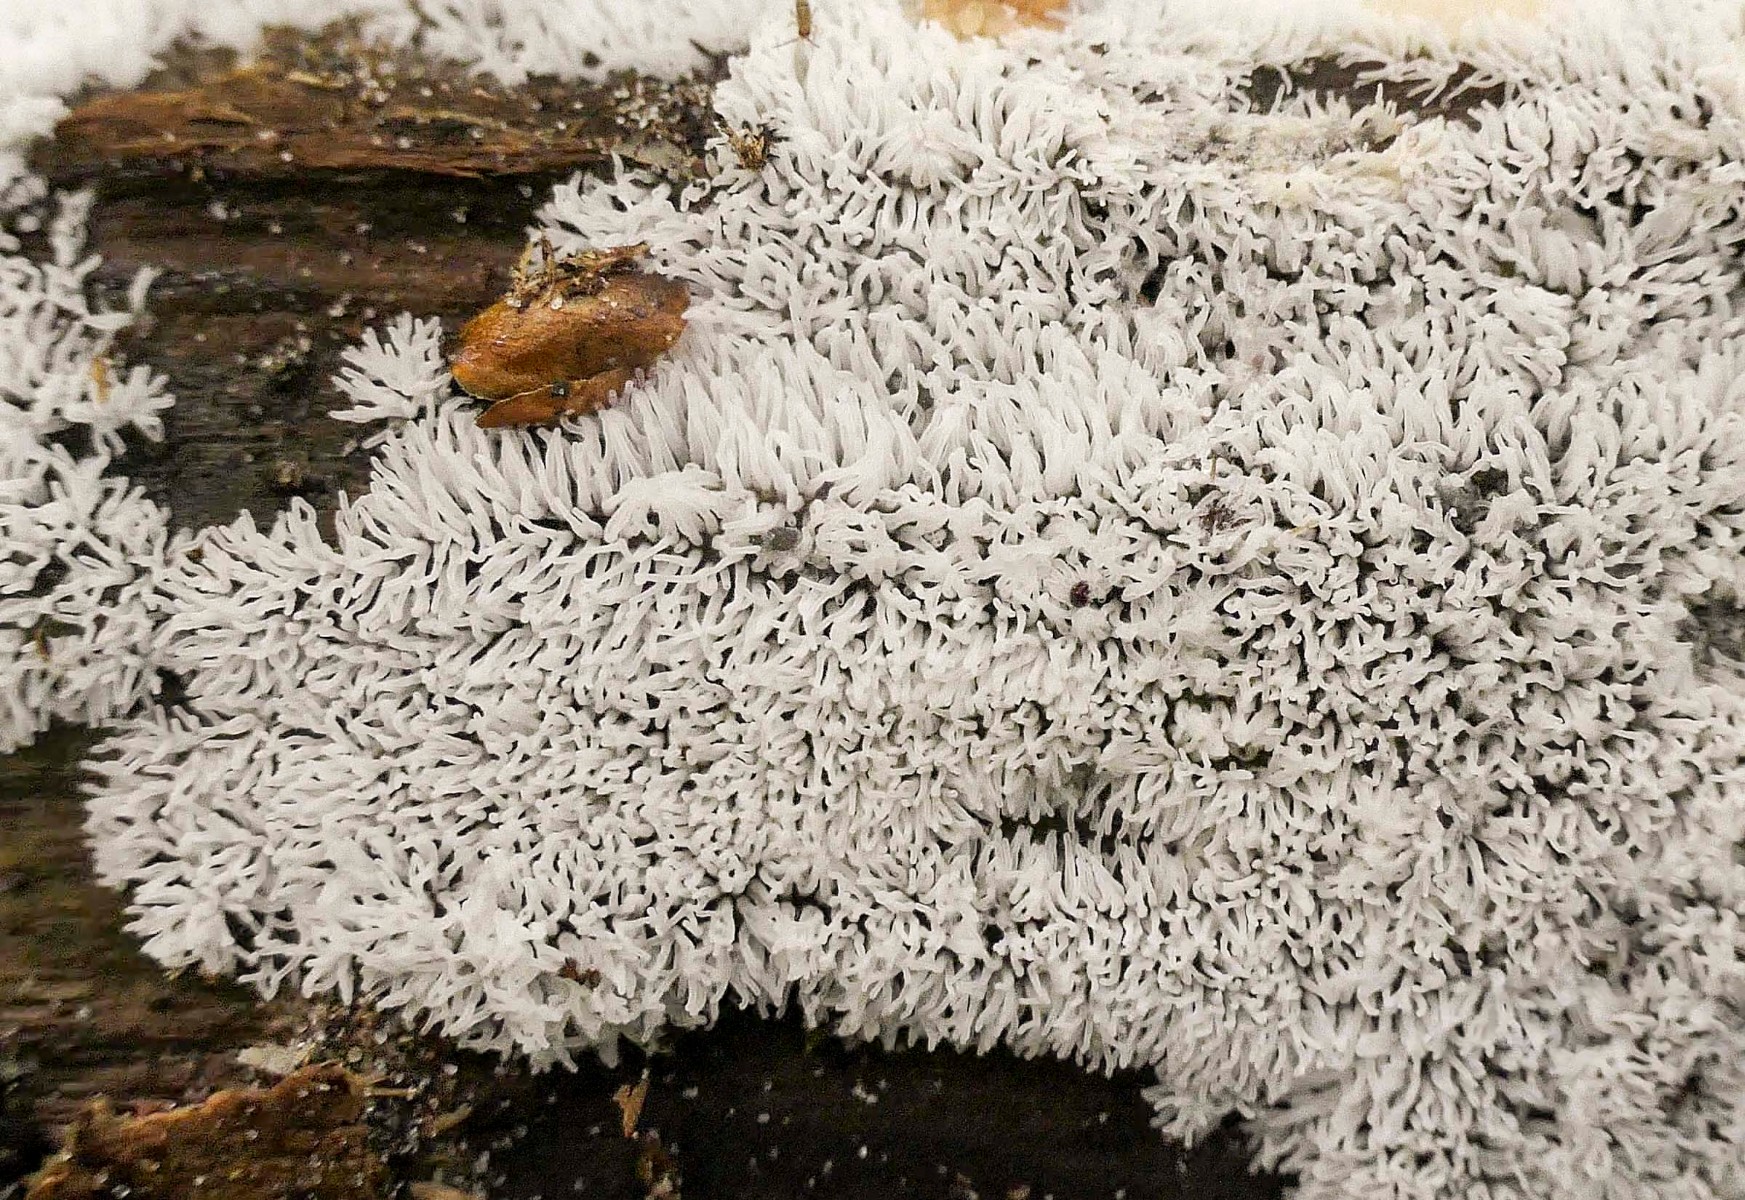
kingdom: Protozoa
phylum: Mycetozoa
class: Protosteliomycetes
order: Ceratiomyxales
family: Ceratiomyxaceae
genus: Ceratiomyxa
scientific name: Ceratiomyxa fruticulosa
